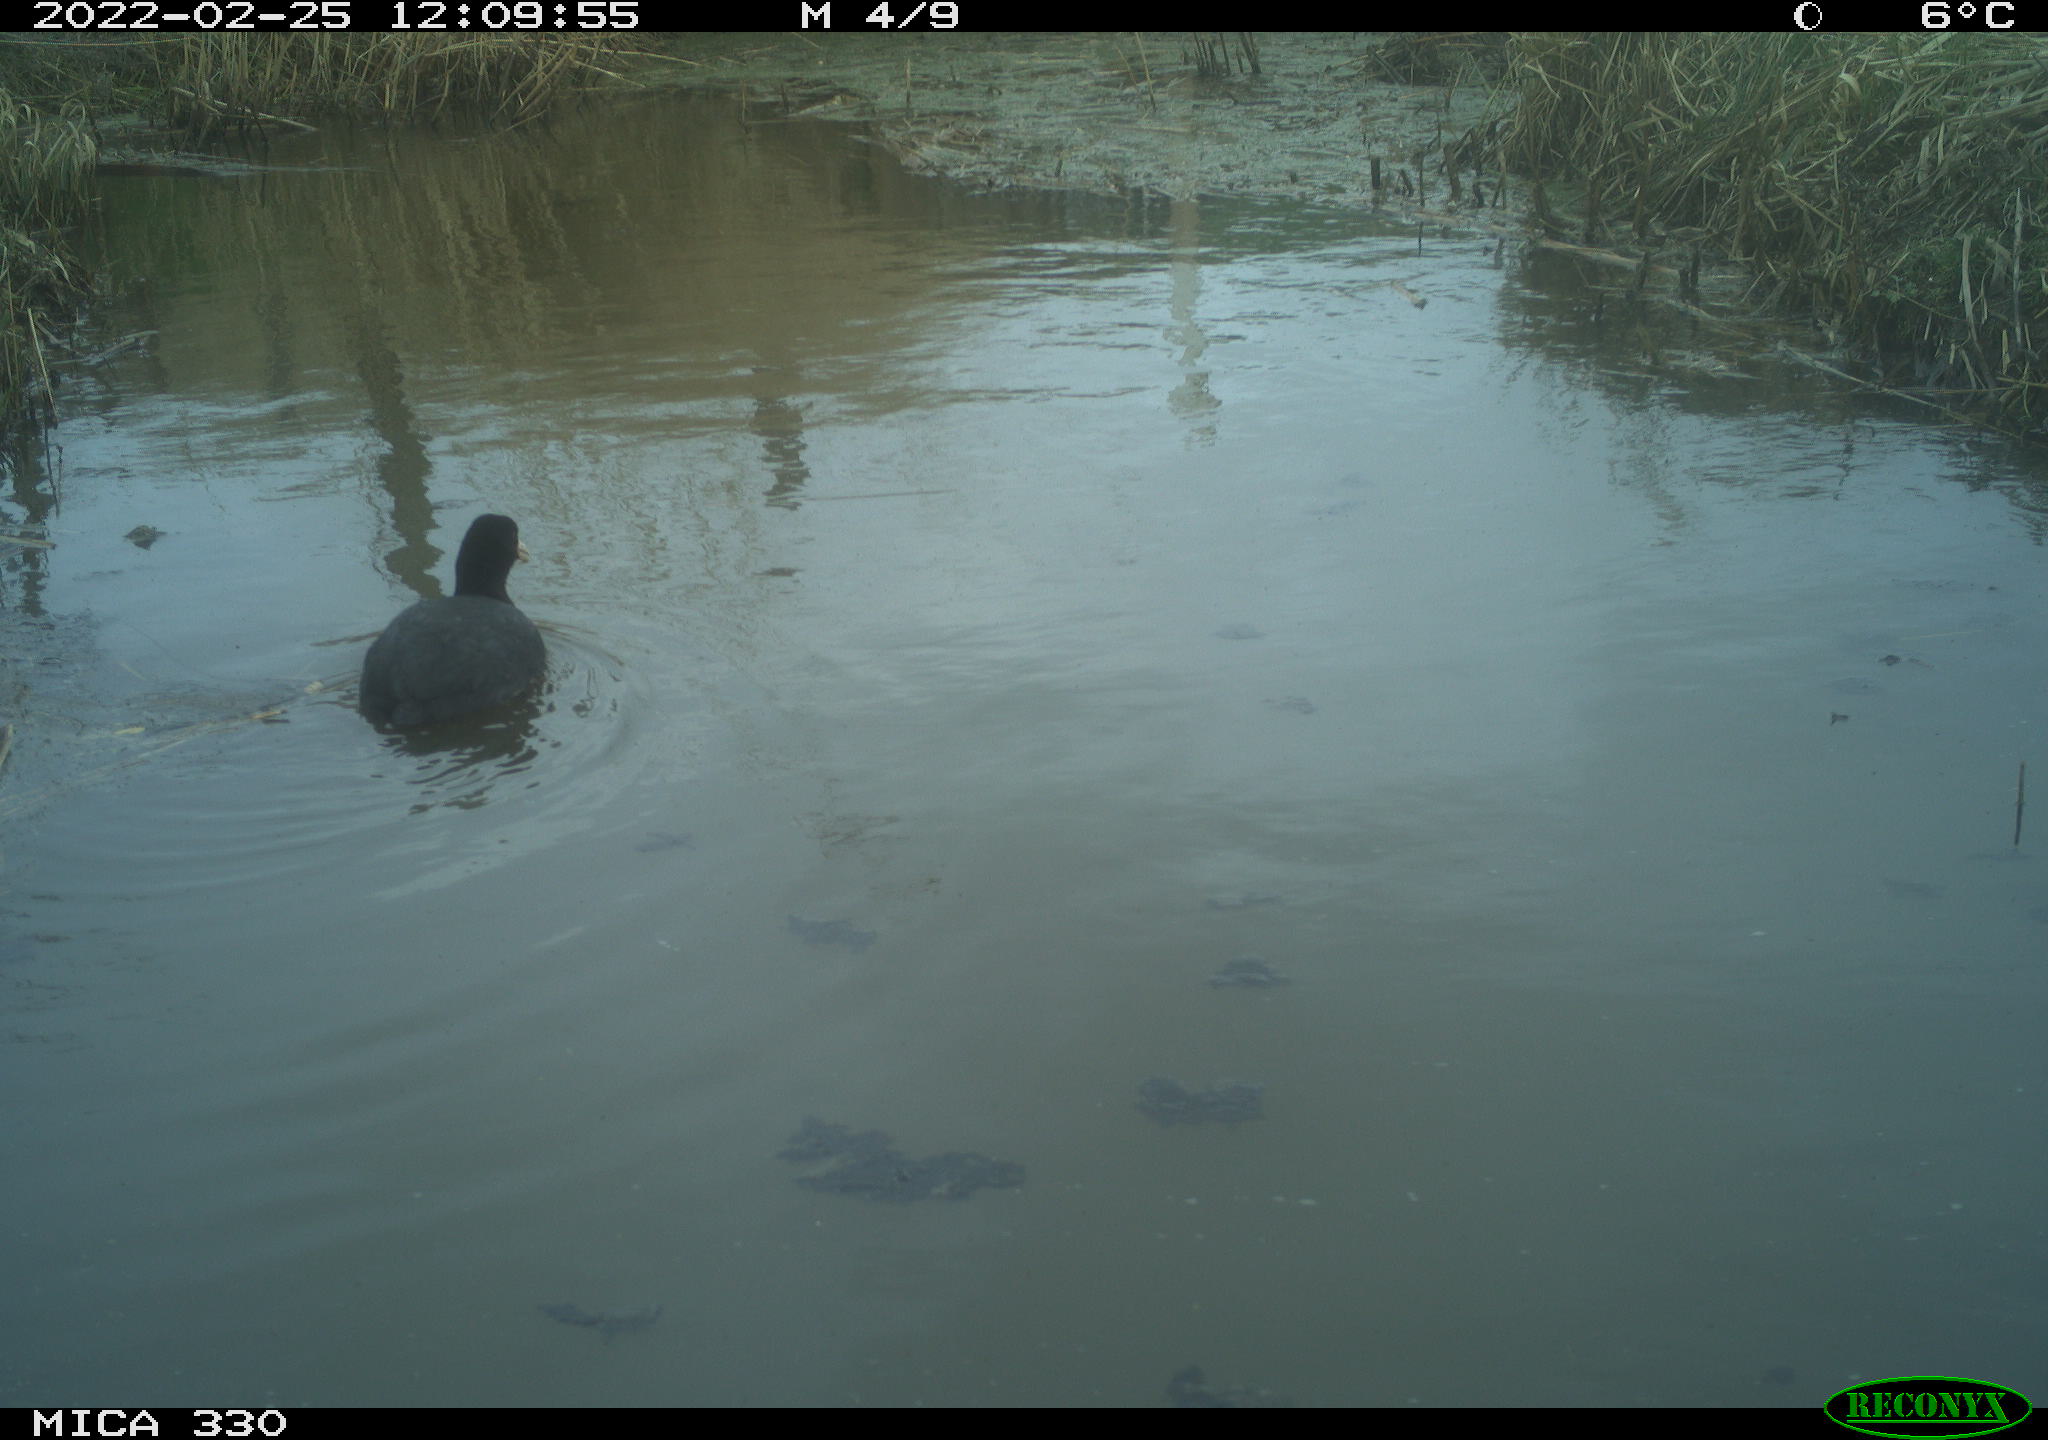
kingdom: Animalia
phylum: Chordata
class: Aves
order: Gruiformes
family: Rallidae
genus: Fulica
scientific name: Fulica atra
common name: Eurasian coot
